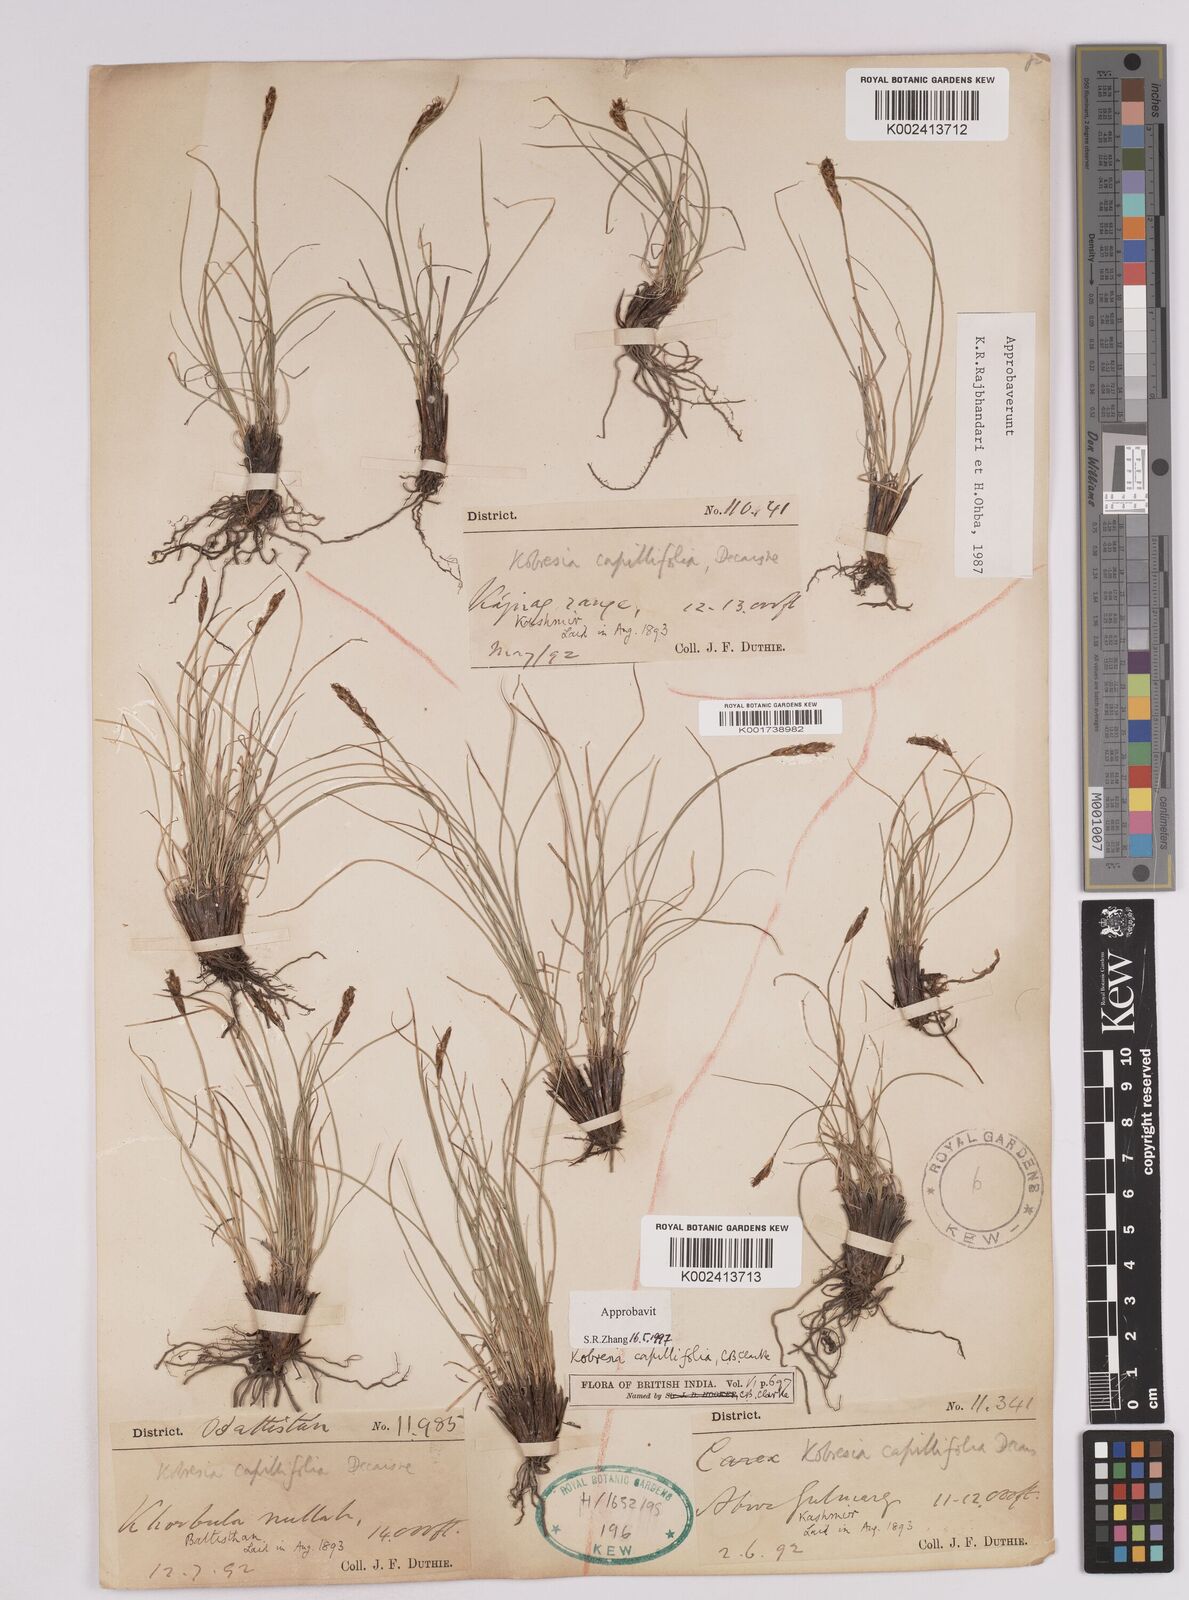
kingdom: Plantae
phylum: Tracheophyta
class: Liliopsida
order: Poales
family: Cyperaceae
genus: Carex
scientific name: Carex capillifolia
